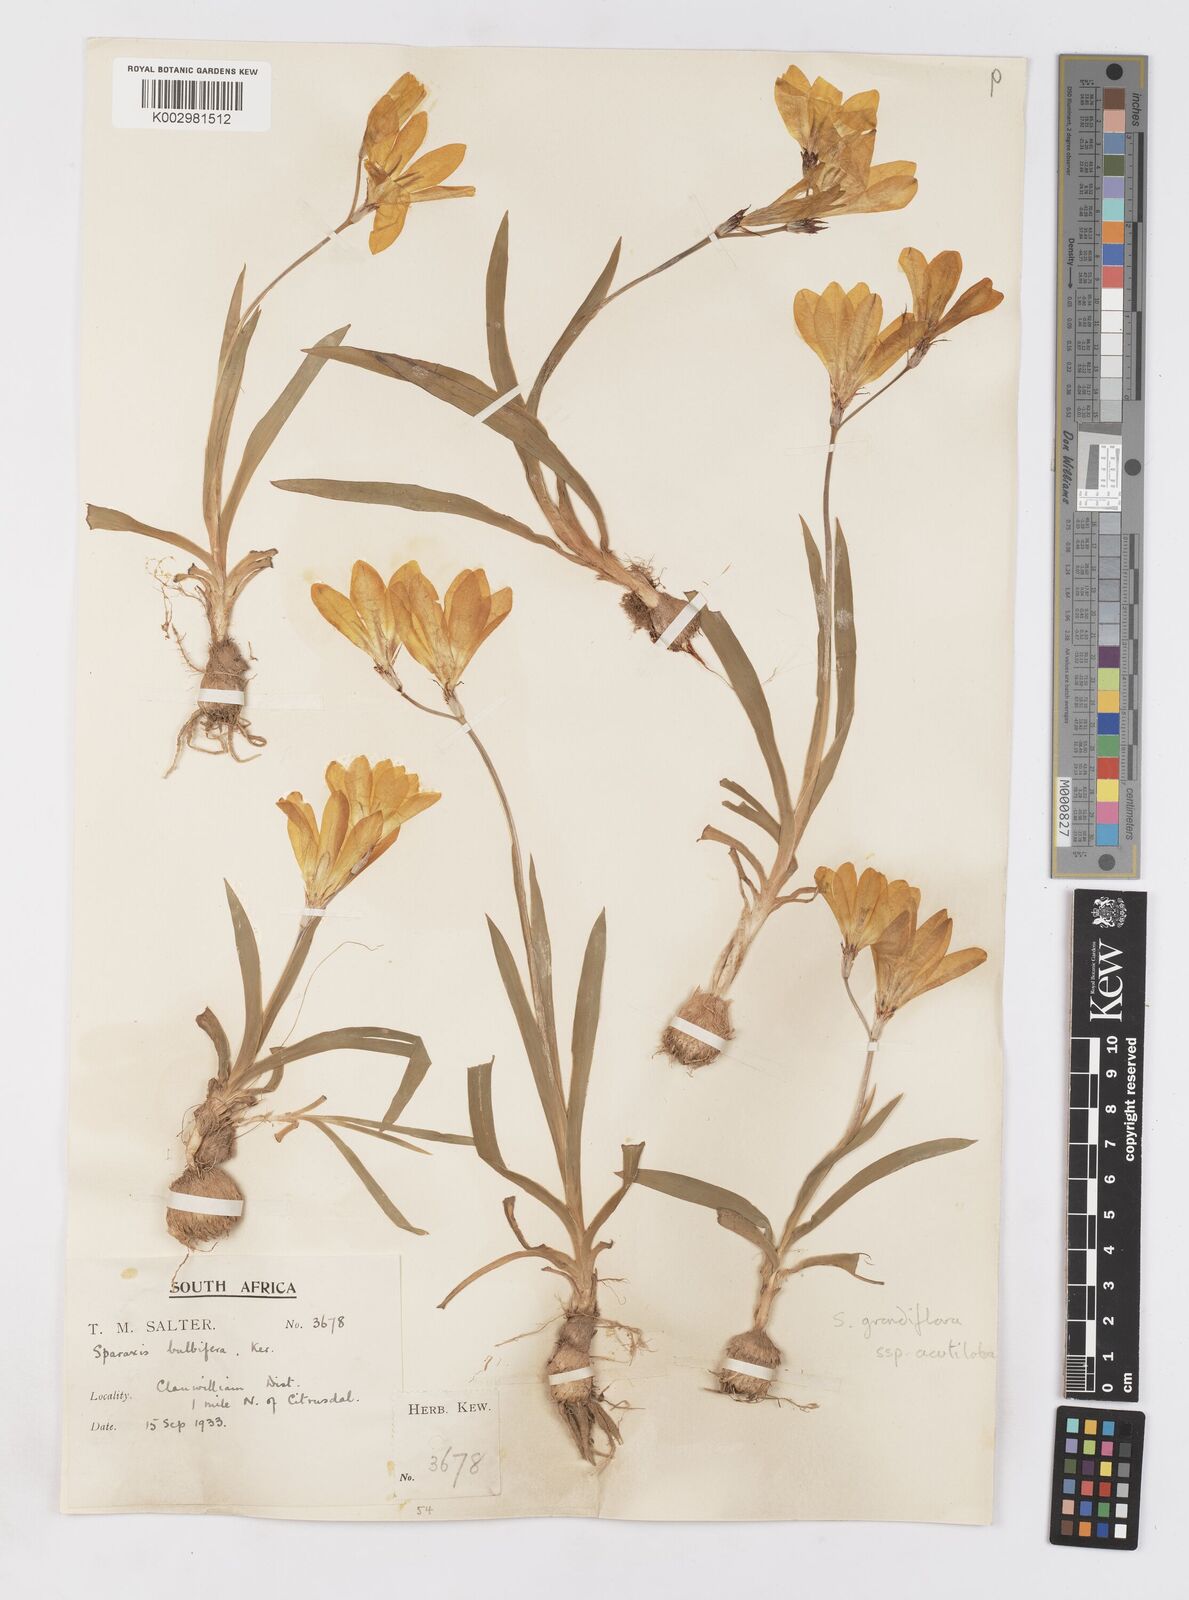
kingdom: Plantae
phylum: Tracheophyta
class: Liliopsida
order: Asparagales
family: Iridaceae
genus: Sparaxis
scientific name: Sparaxis grandiflora
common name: Plain harlequin-flower
